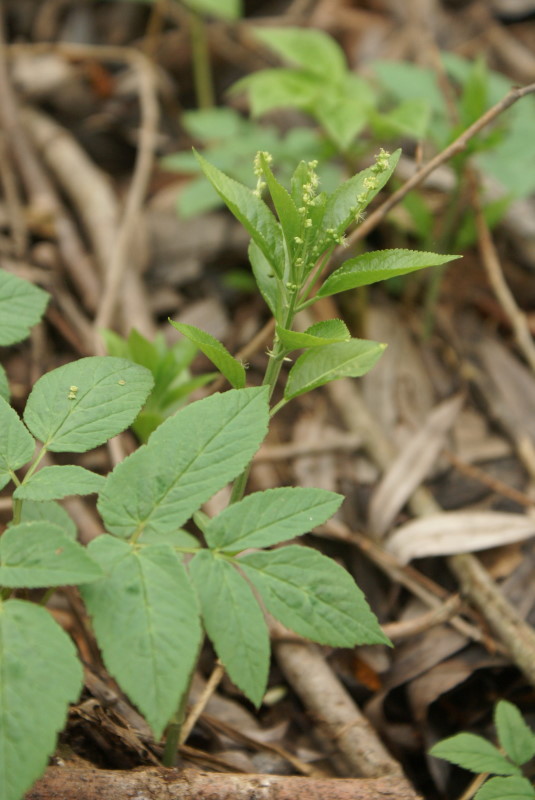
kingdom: Plantae
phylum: Tracheophyta
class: Magnoliopsida
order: Malpighiales
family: Euphorbiaceae
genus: Mercurialis
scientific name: Mercurialis perennis
